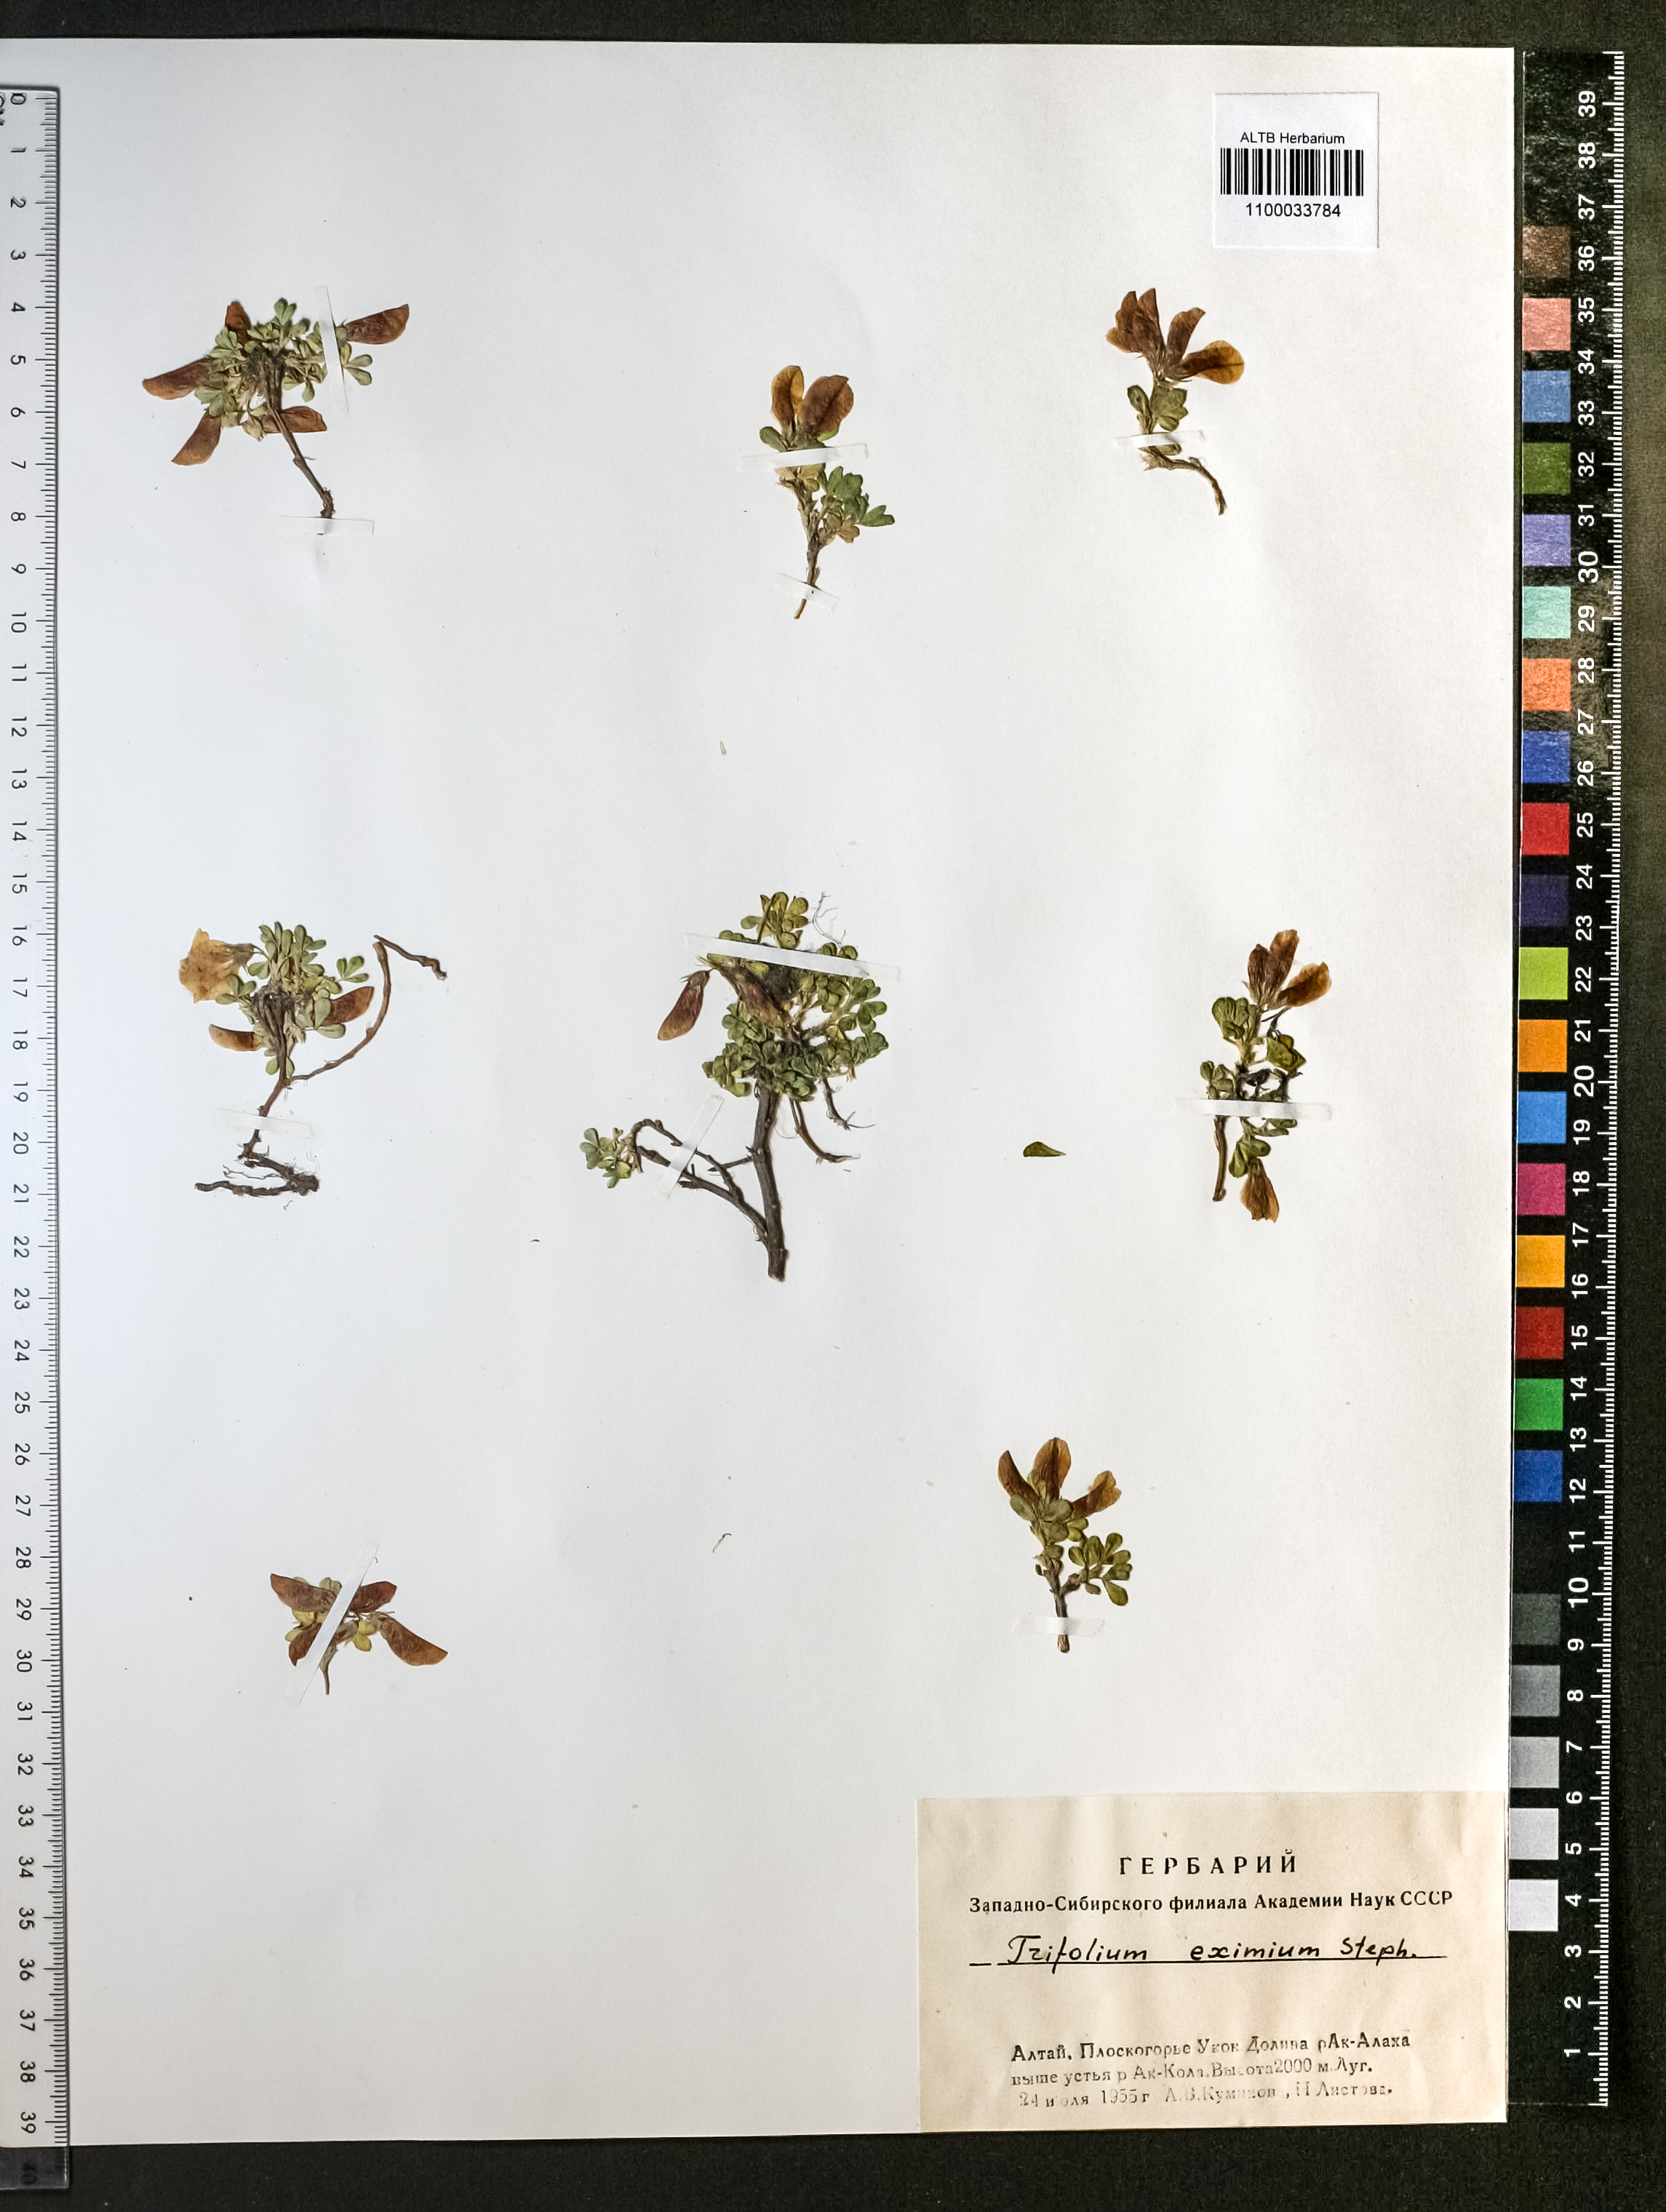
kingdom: Plantae
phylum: Tracheophyta
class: Magnoliopsida
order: Fabales
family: Fabaceae
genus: Trifolium
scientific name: Trifolium eximium
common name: Excellent clover
